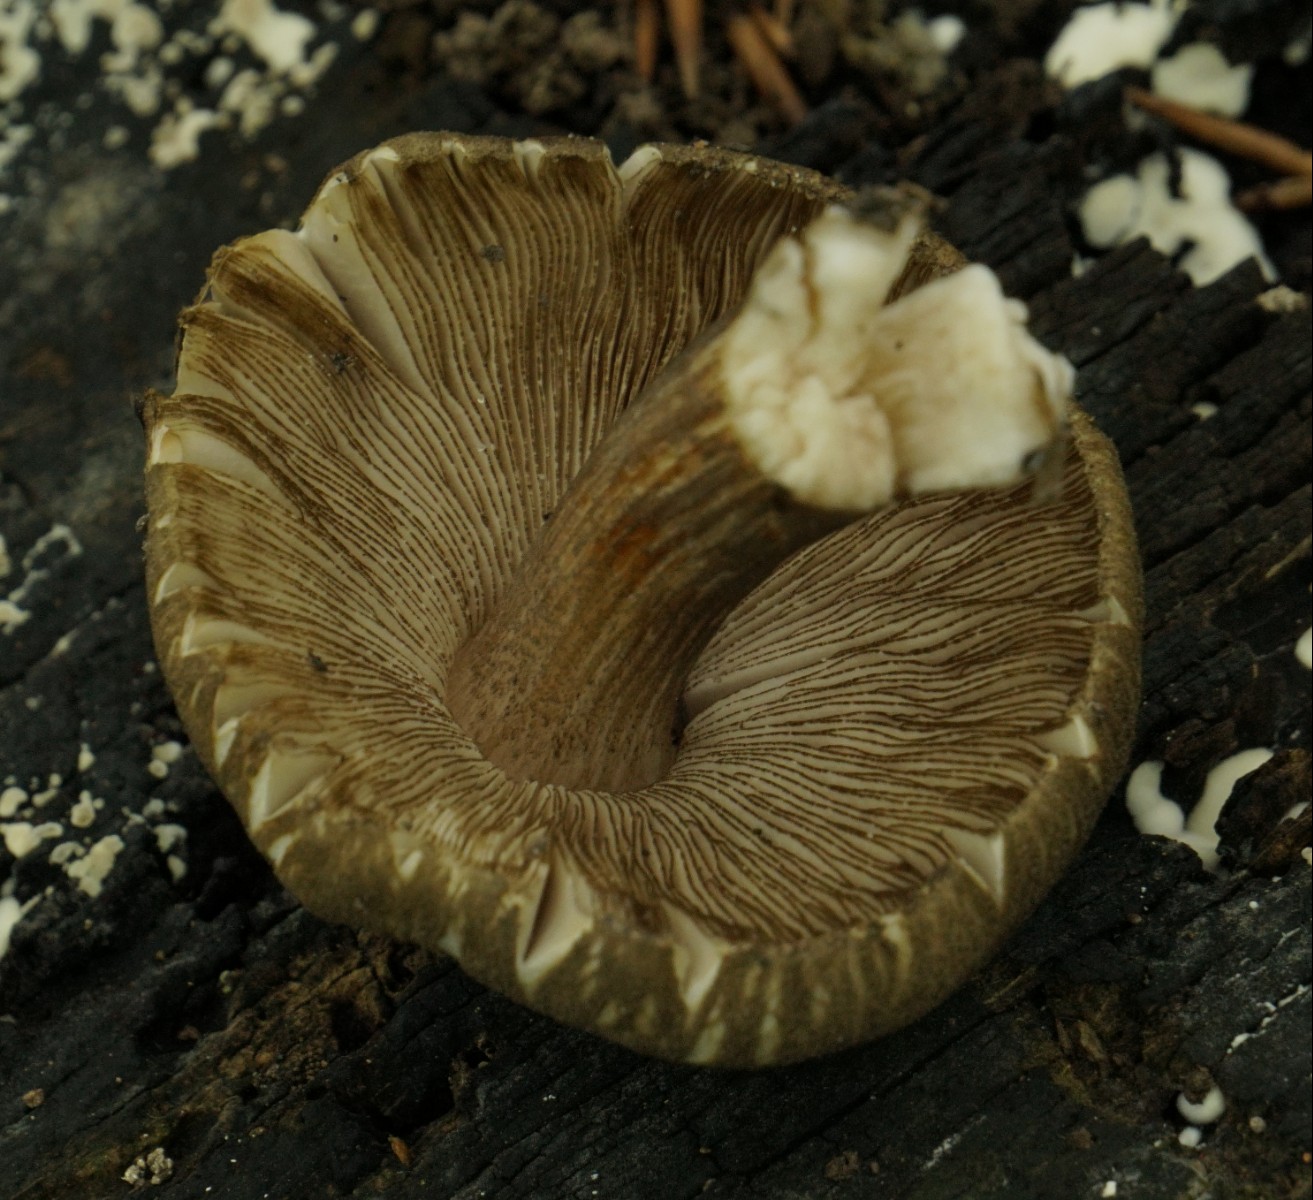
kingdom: Fungi
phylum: Basidiomycota
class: Agaricomycetes
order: Agaricales
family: Pluteaceae
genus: Pluteus
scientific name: Pluteus umbrosus
